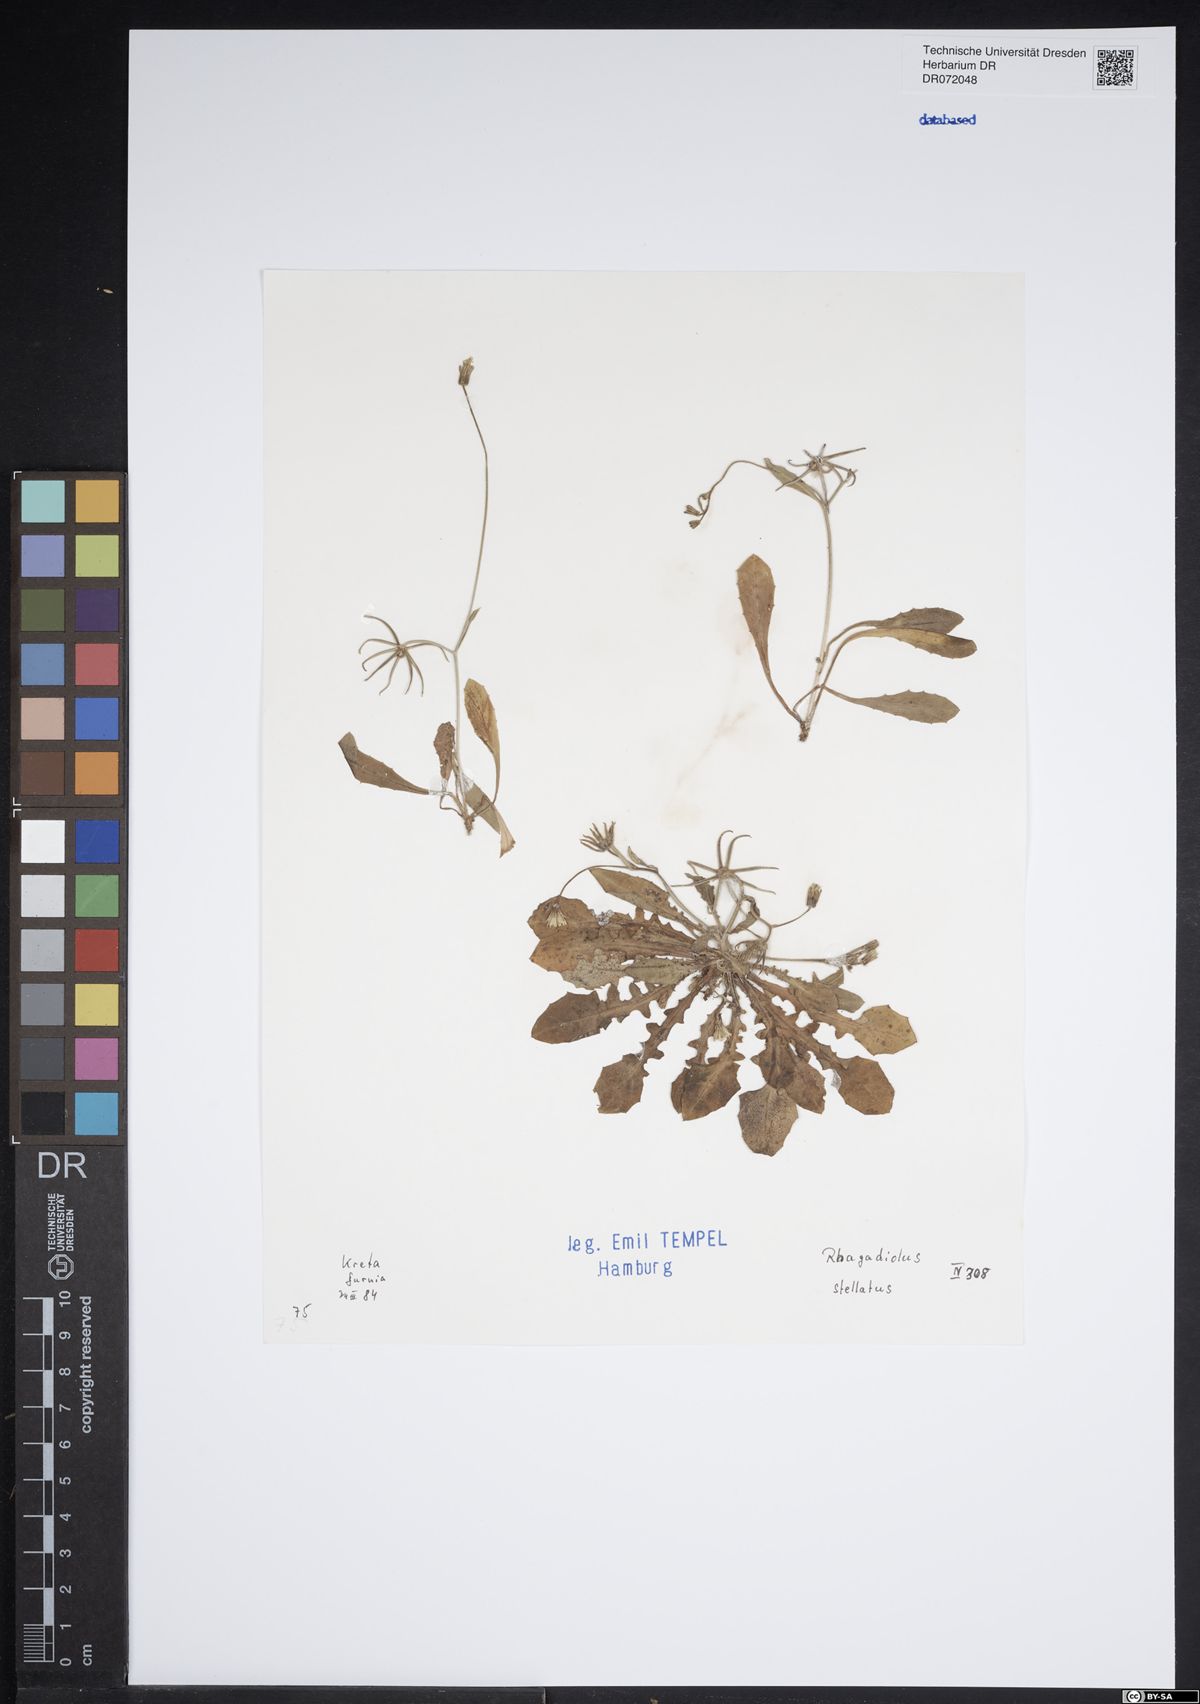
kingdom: Plantae
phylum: Tracheophyta
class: Magnoliopsida
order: Asterales
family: Asteraceae
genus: Rhagadiolus
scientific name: Rhagadiolus stellatus
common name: Star hawkbit
